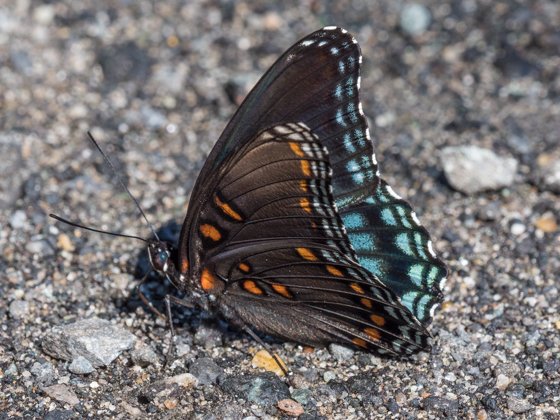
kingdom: Animalia
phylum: Arthropoda
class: Insecta
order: Lepidoptera
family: Nymphalidae
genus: Limenitis
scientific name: Limenitis astyanax
